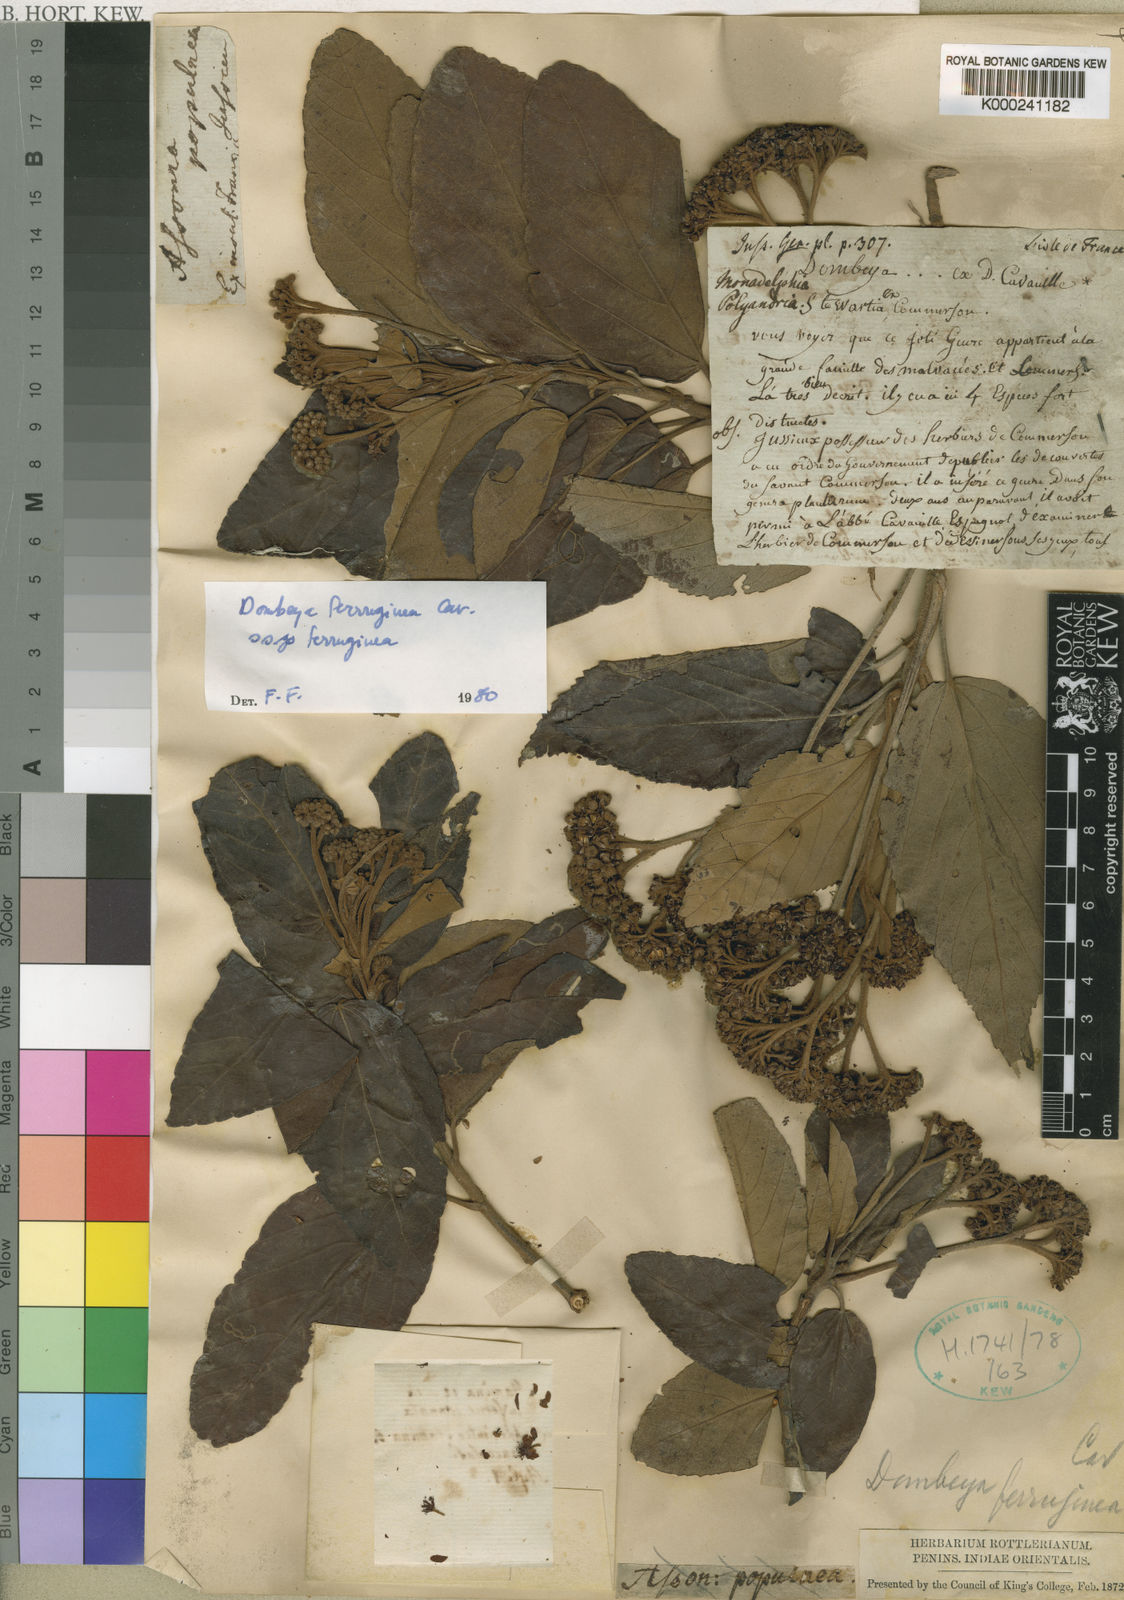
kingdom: Plantae
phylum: Tracheophyta
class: Magnoliopsida
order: Malvales
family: Malvaceae
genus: Ruizia
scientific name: Ruizia ferruginea
